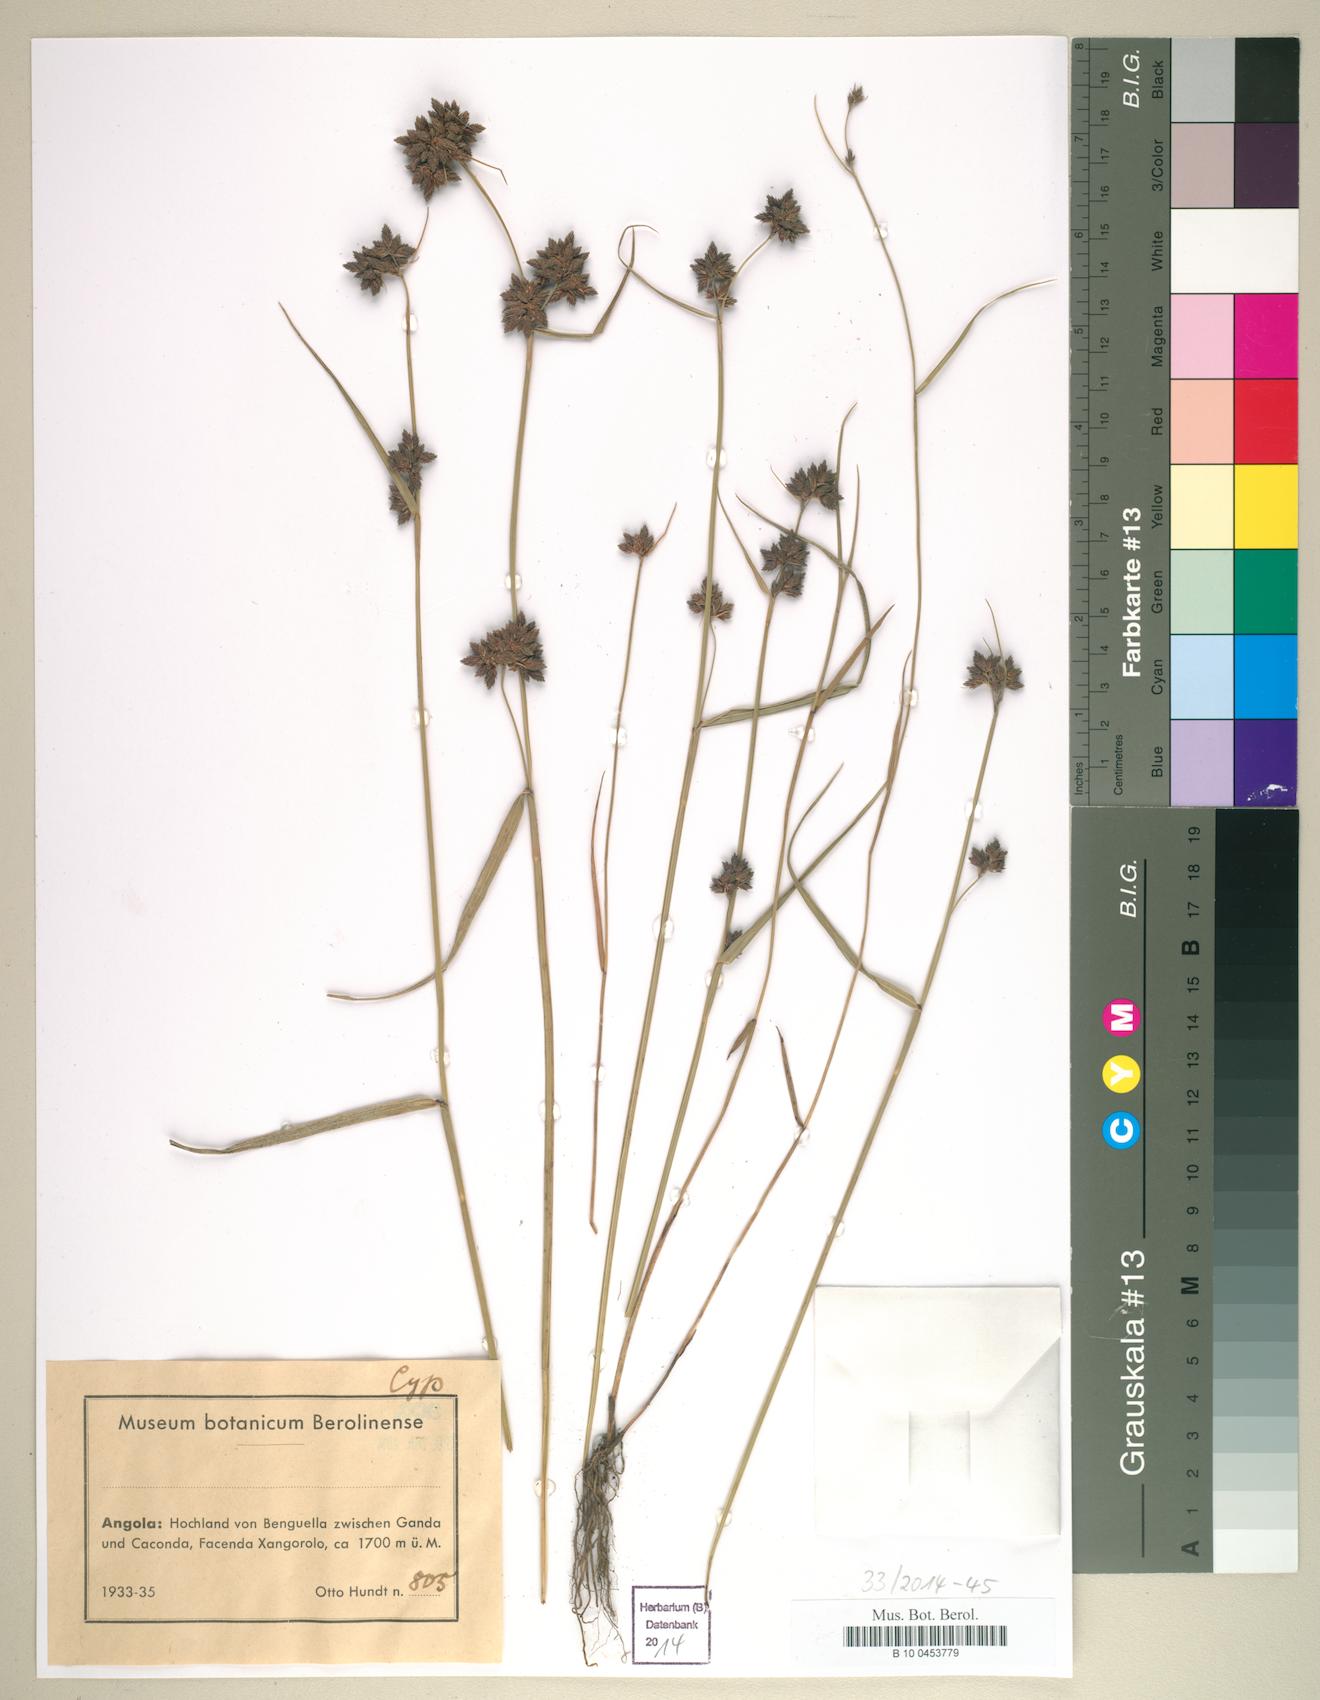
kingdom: Plantae
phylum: Tracheophyta
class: Liliopsida
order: Poales
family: Cyperaceae
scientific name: Cyperaceae
